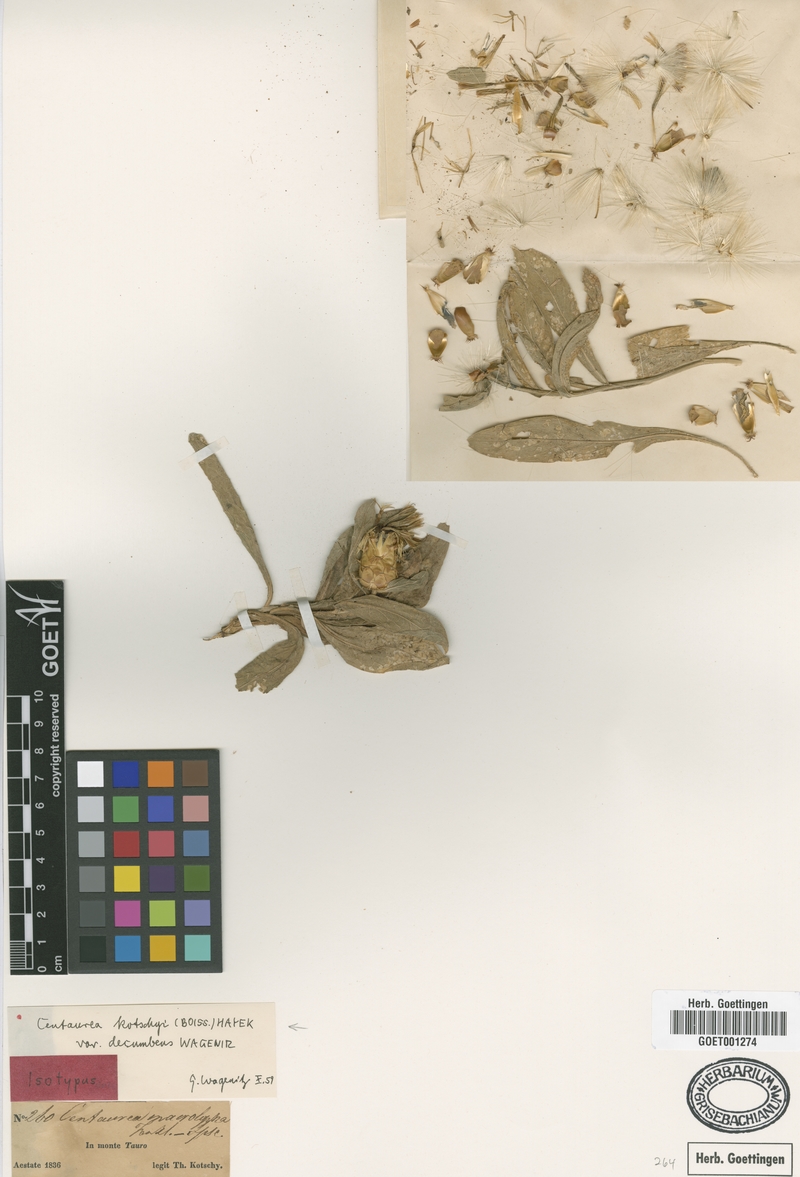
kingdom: Plantae
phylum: Tracheophyta
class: Magnoliopsida
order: Asterales
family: Asteraceae
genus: Centaurea
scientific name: Centaurea kotschyi
